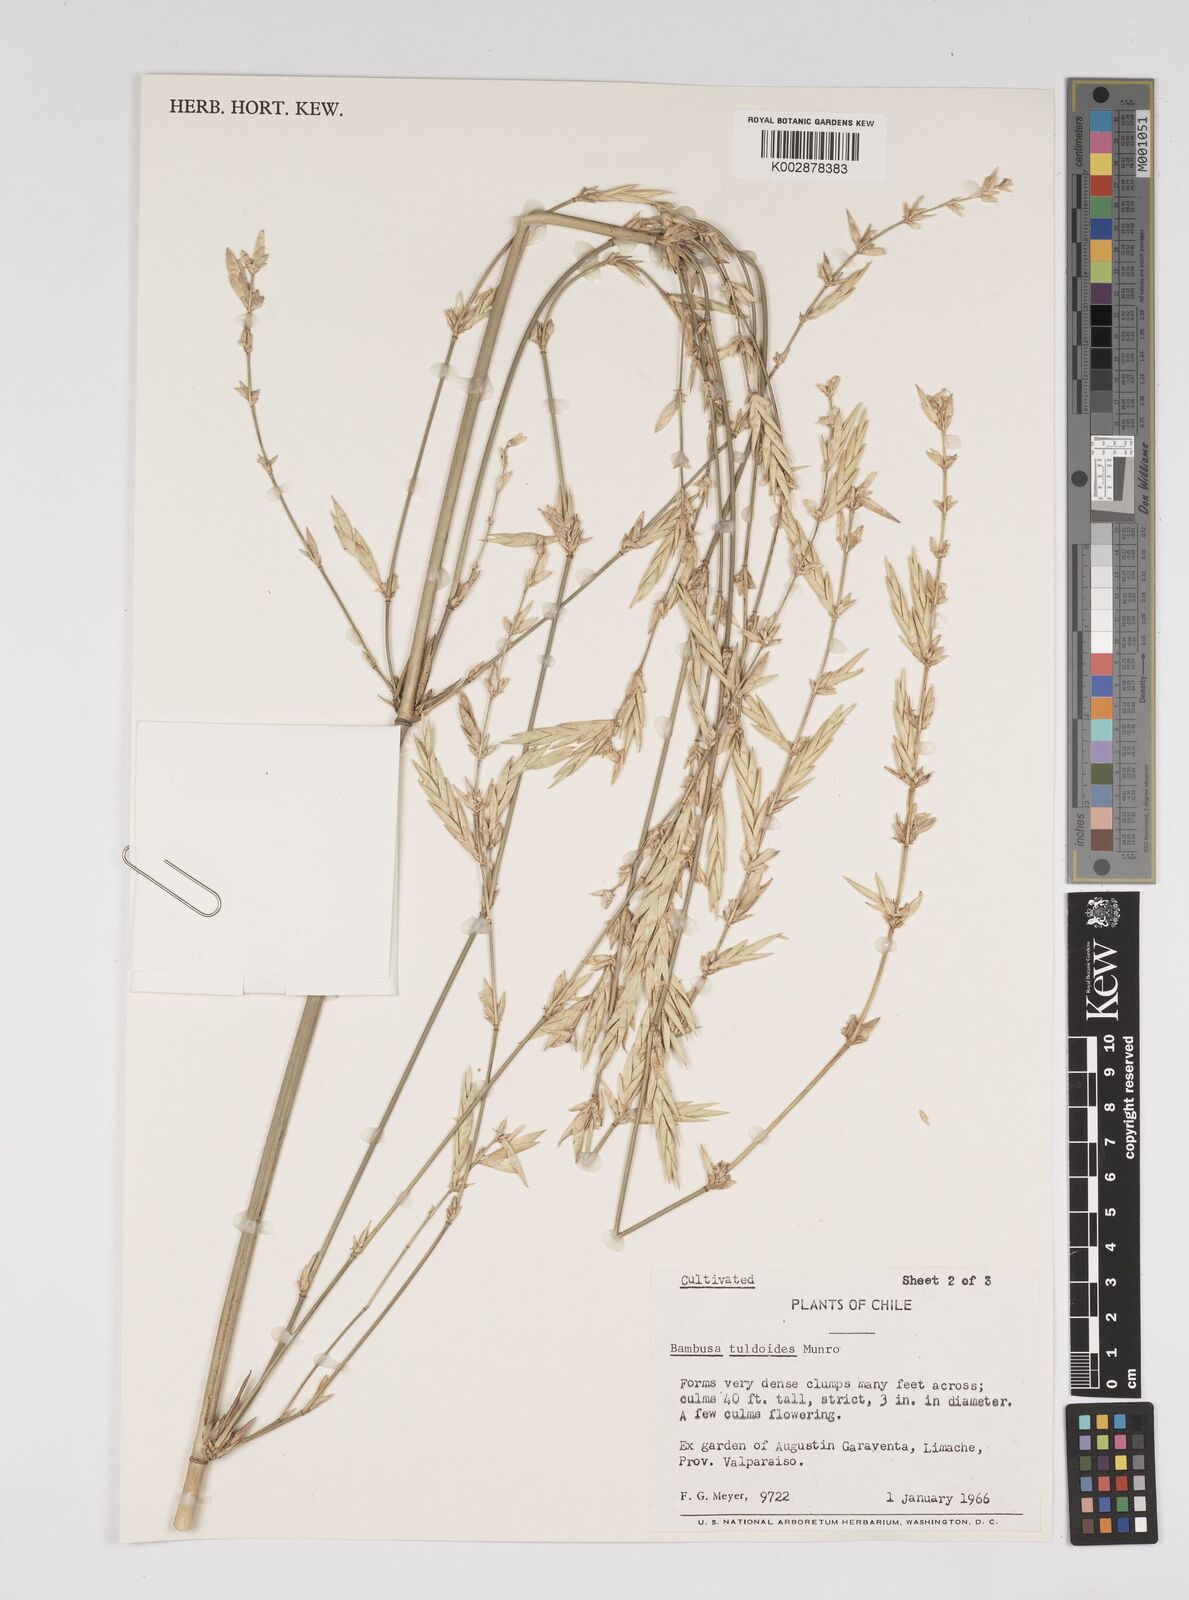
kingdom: Plantae
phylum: Tracheophyta
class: Liliopsida
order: Poales
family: Poaceae
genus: Bambusa
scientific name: Bambusa tuldoides
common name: Verdant bamboo
